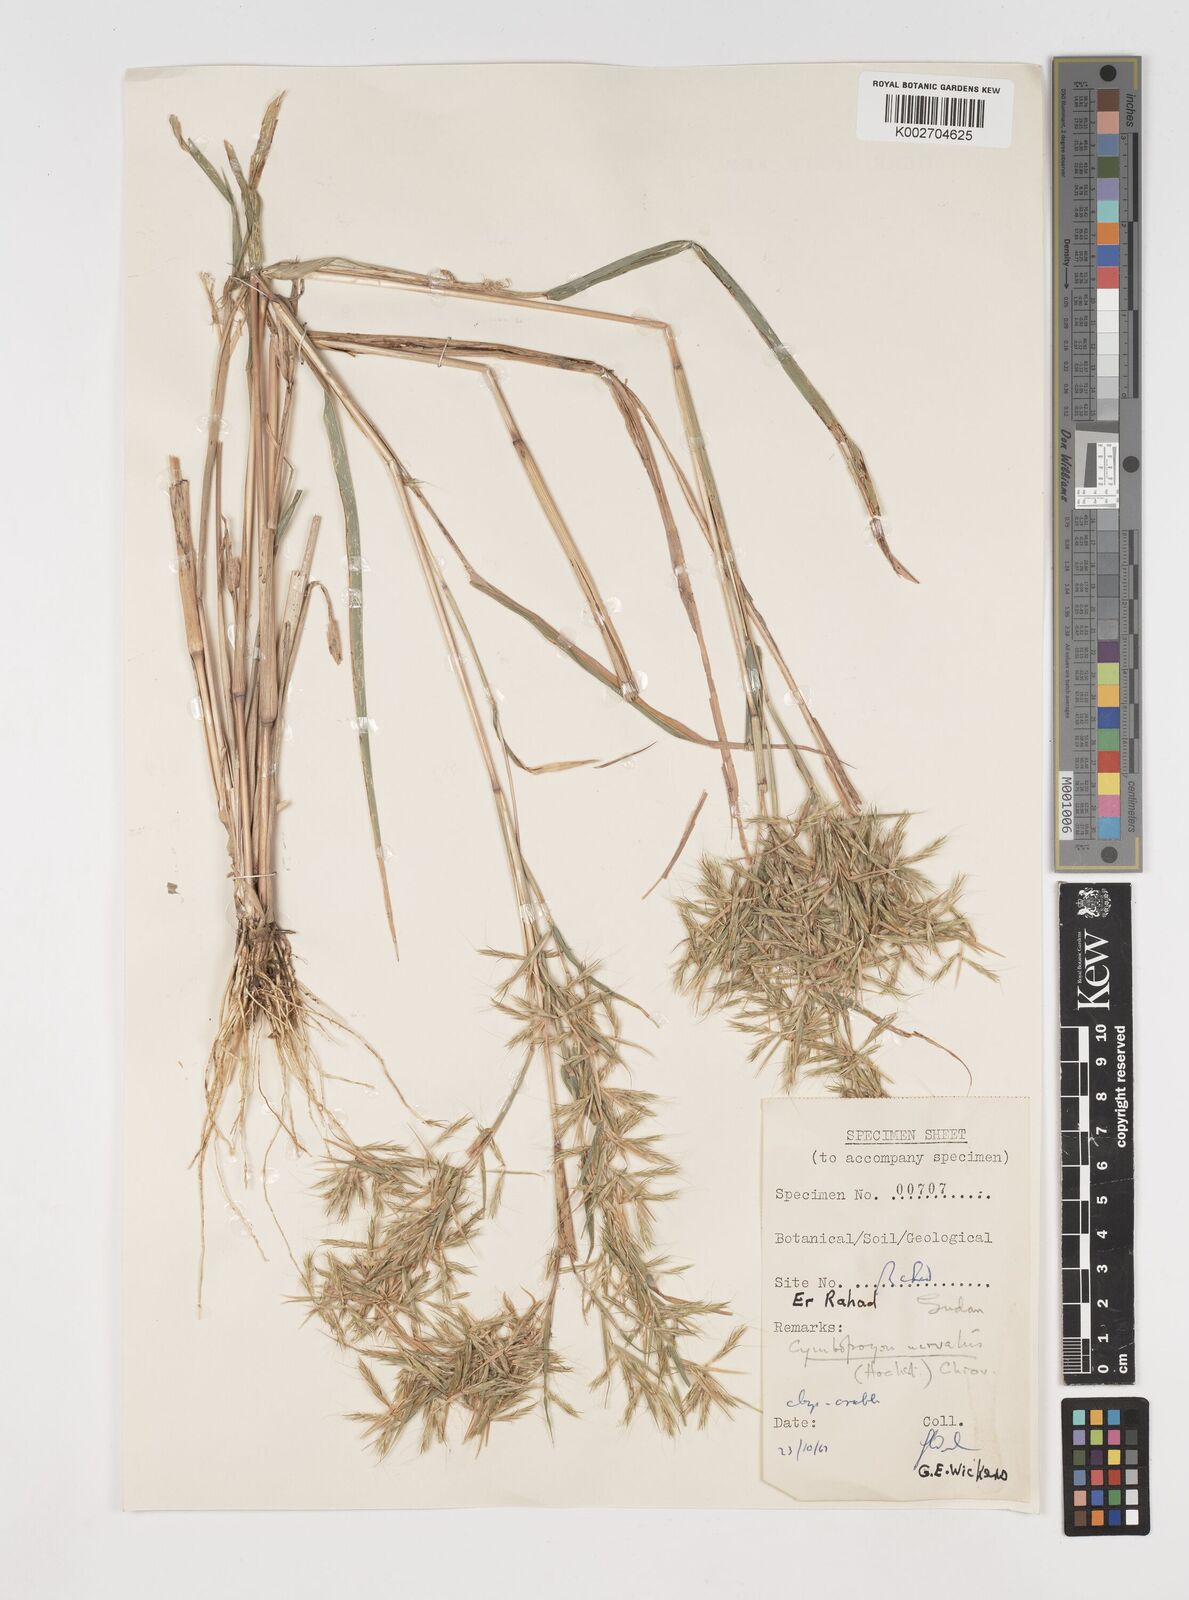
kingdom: Plantae
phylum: Tracheophyta
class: Liliopsida
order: Poales
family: Poaceae
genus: Cymbopogon
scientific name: Cymbopogon nervatus
